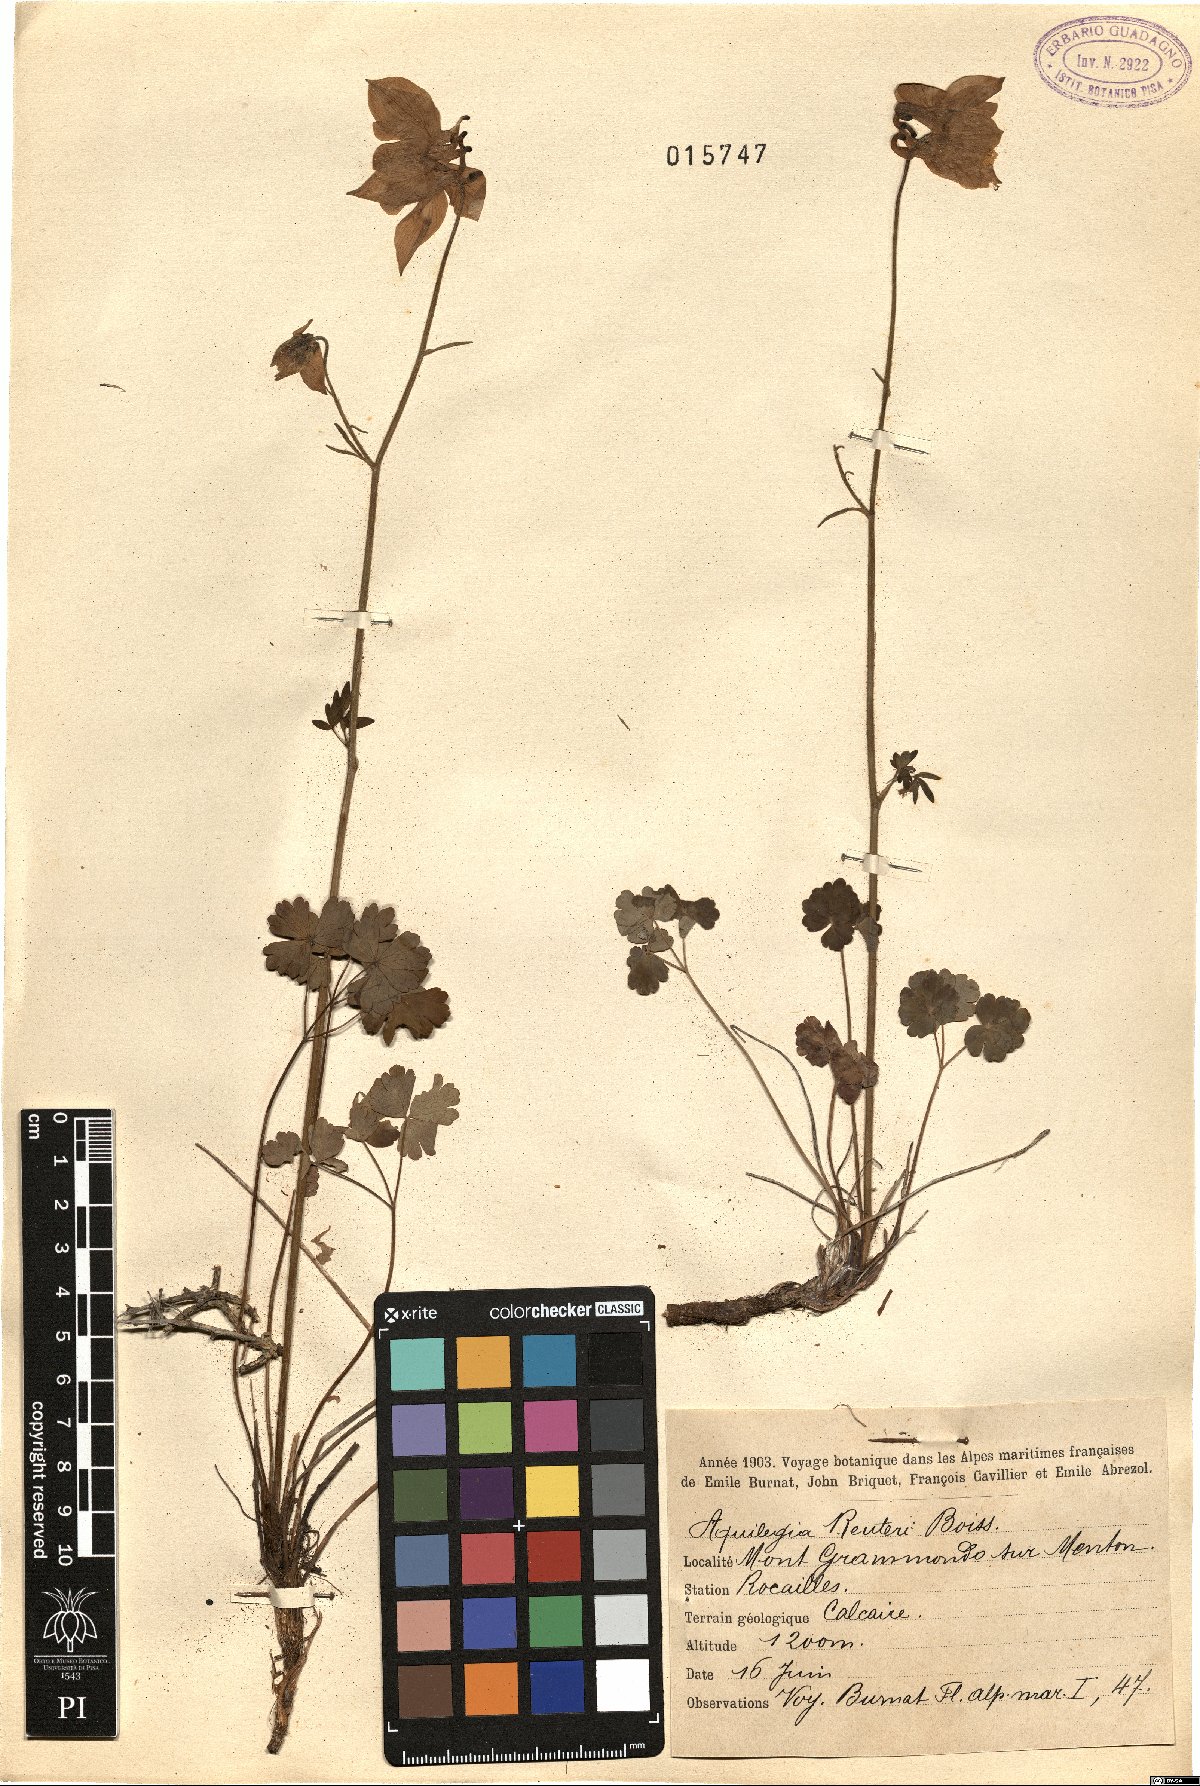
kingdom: Plantae
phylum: Tracheophyta
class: Magnoliopsida
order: Ranunculales
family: Ranunculaceae
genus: Aquilegia
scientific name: Aquilegia bertolonii
